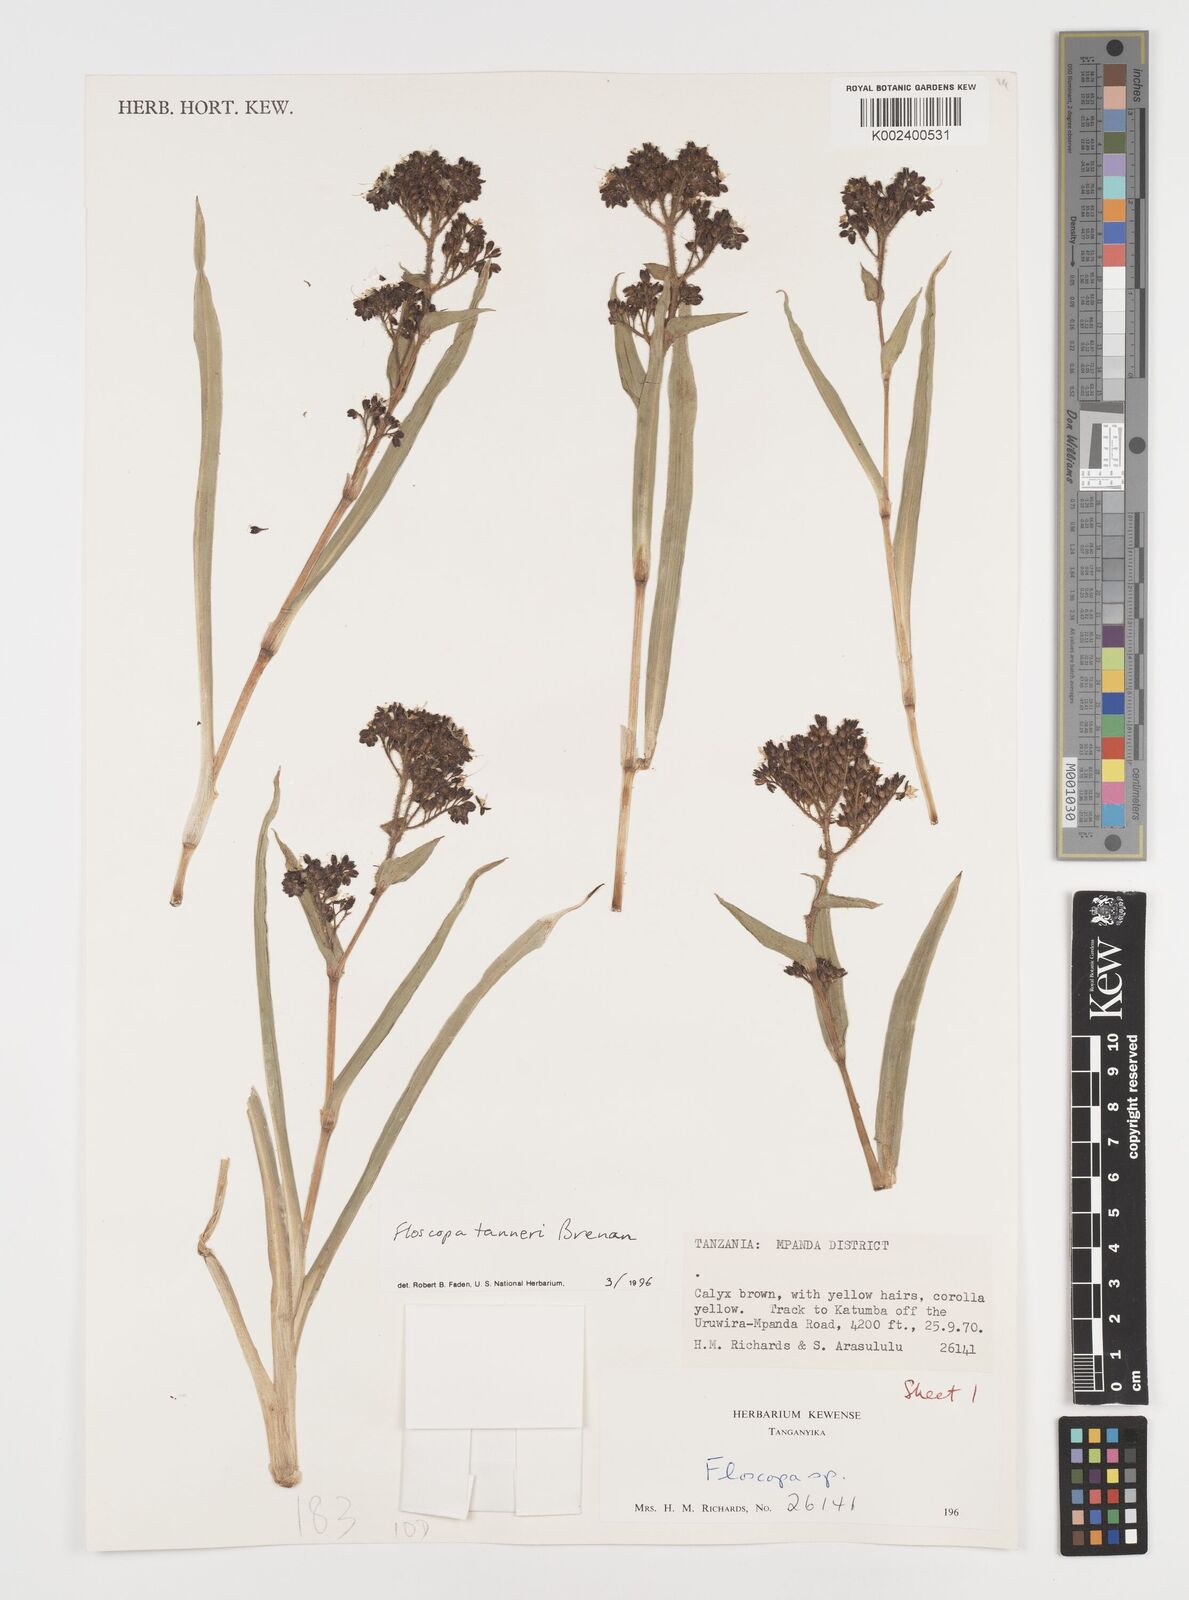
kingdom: Plantae
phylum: Tracheophyta
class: Liliopsida
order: Commelinales
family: Commelinaceae
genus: Floscopa
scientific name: Floscopa tanneri
